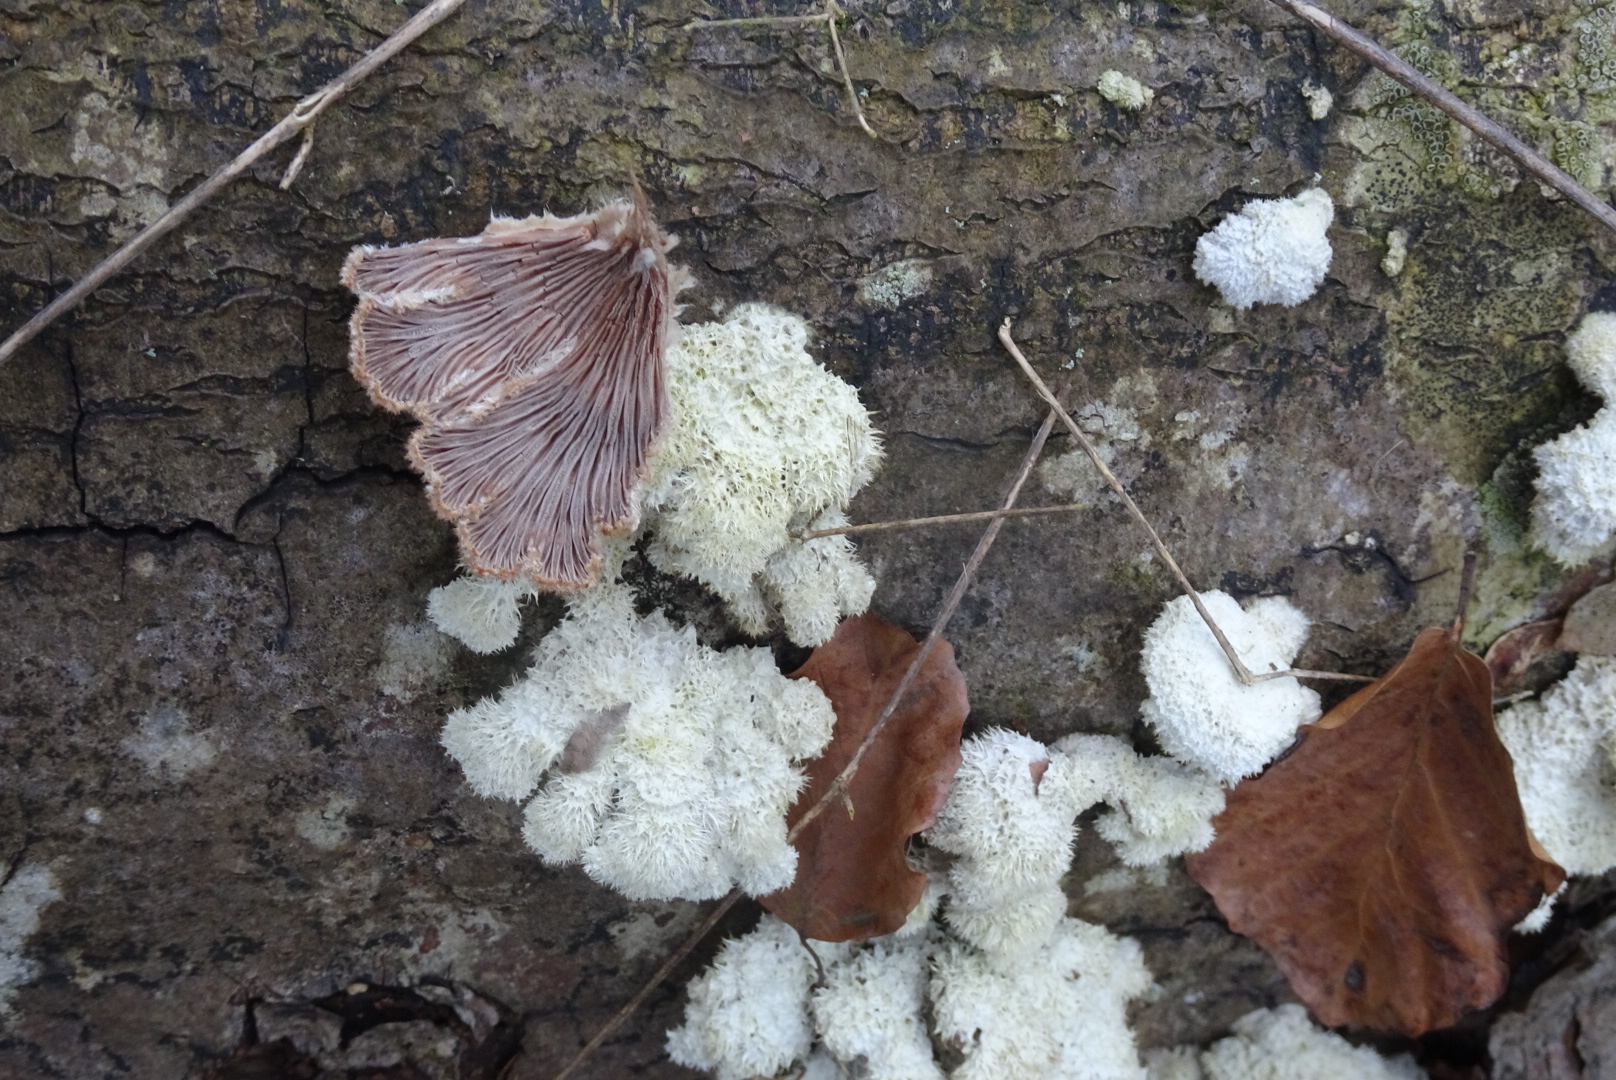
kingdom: Fungi
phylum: Basidiomycota
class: Agaricomycetes
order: Agaricales
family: Schizophyllaceae
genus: Schizophyllum
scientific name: Schizophyllum commune
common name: kløvblad
